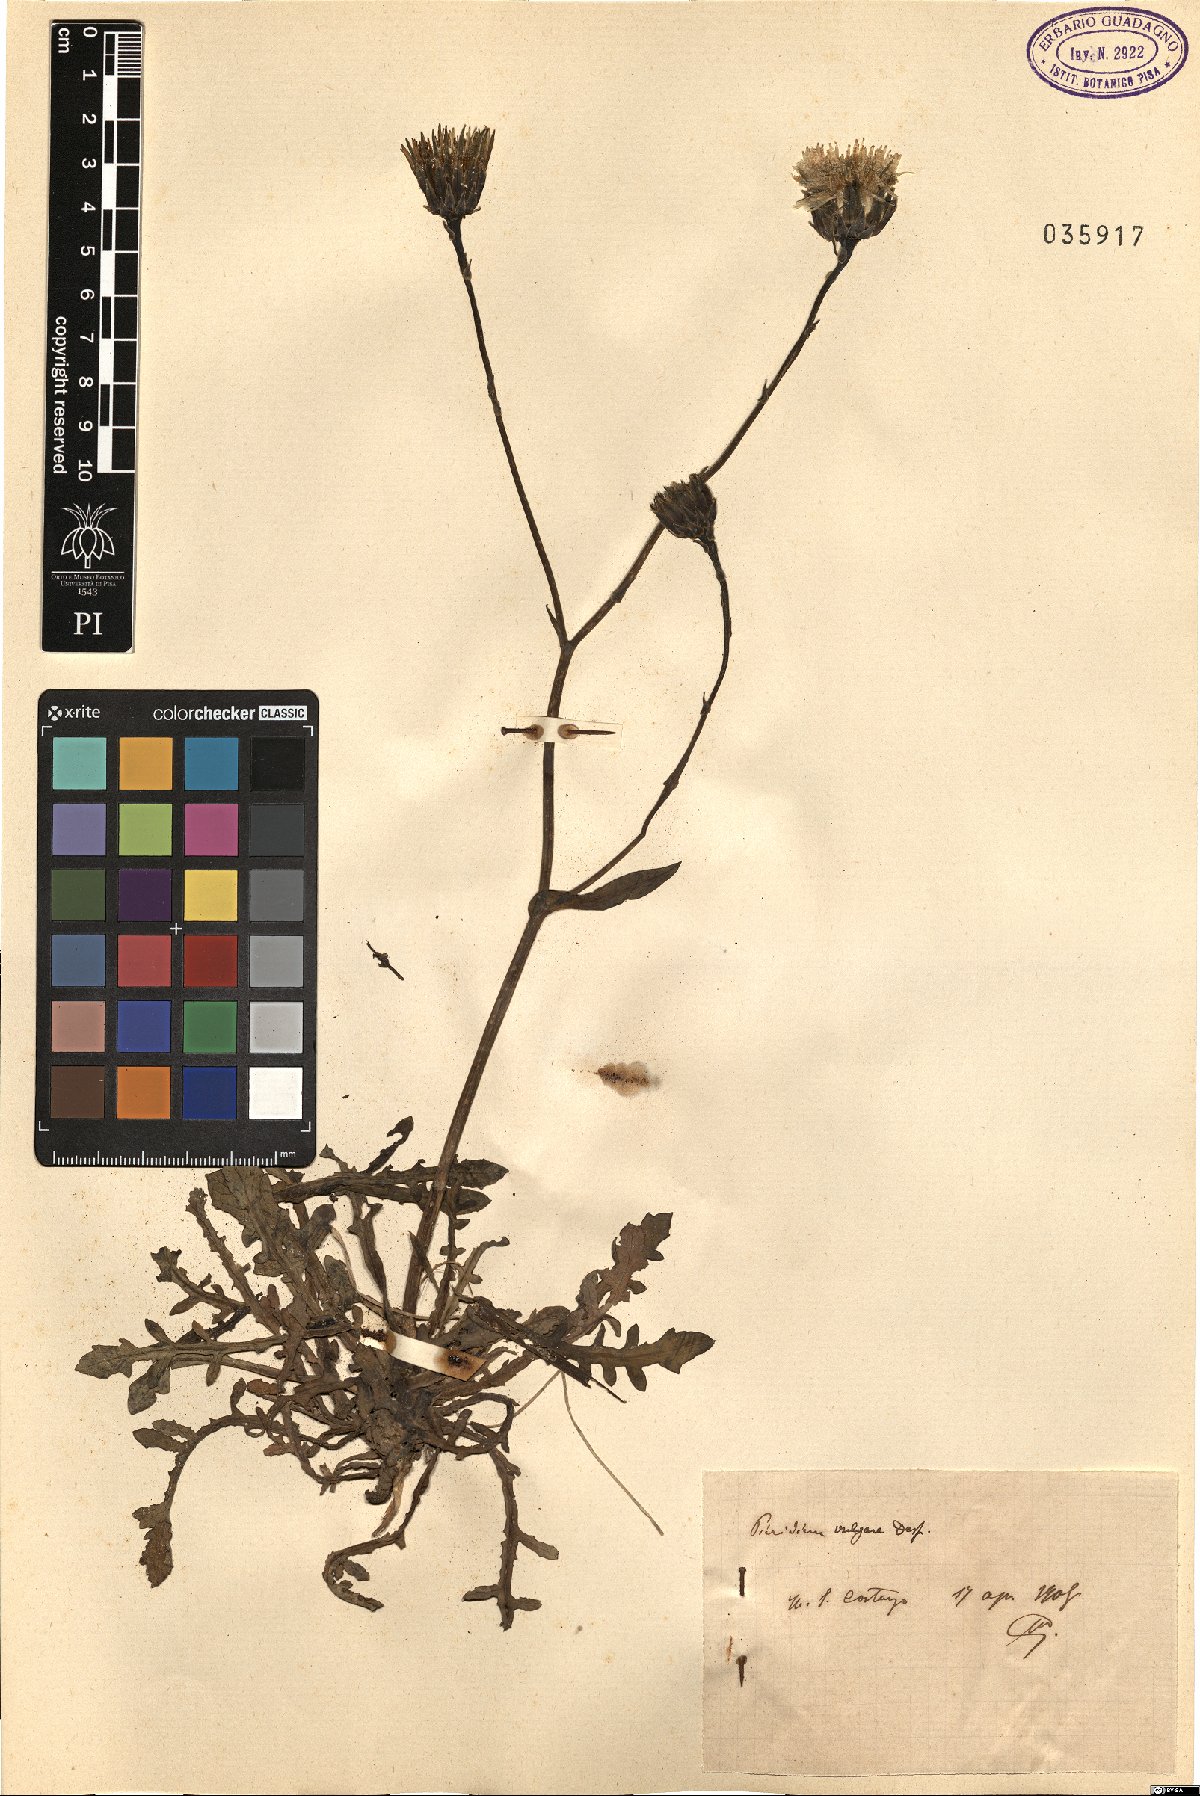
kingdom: Plantae
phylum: Tracheophyta
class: Magnoliopsida
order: Asterales
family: Asteraceae
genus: Reichardia
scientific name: Reichardia picroides
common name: Common brighteyes
